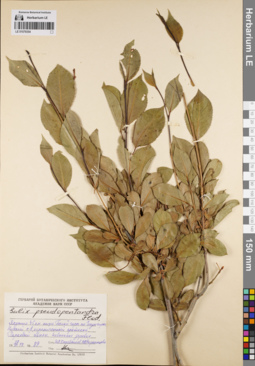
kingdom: Plantae
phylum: Tracheophyta
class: Magnoliopsida
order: Malpighiales
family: Salicaceae
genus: Salix
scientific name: Salix pseudopentandra
